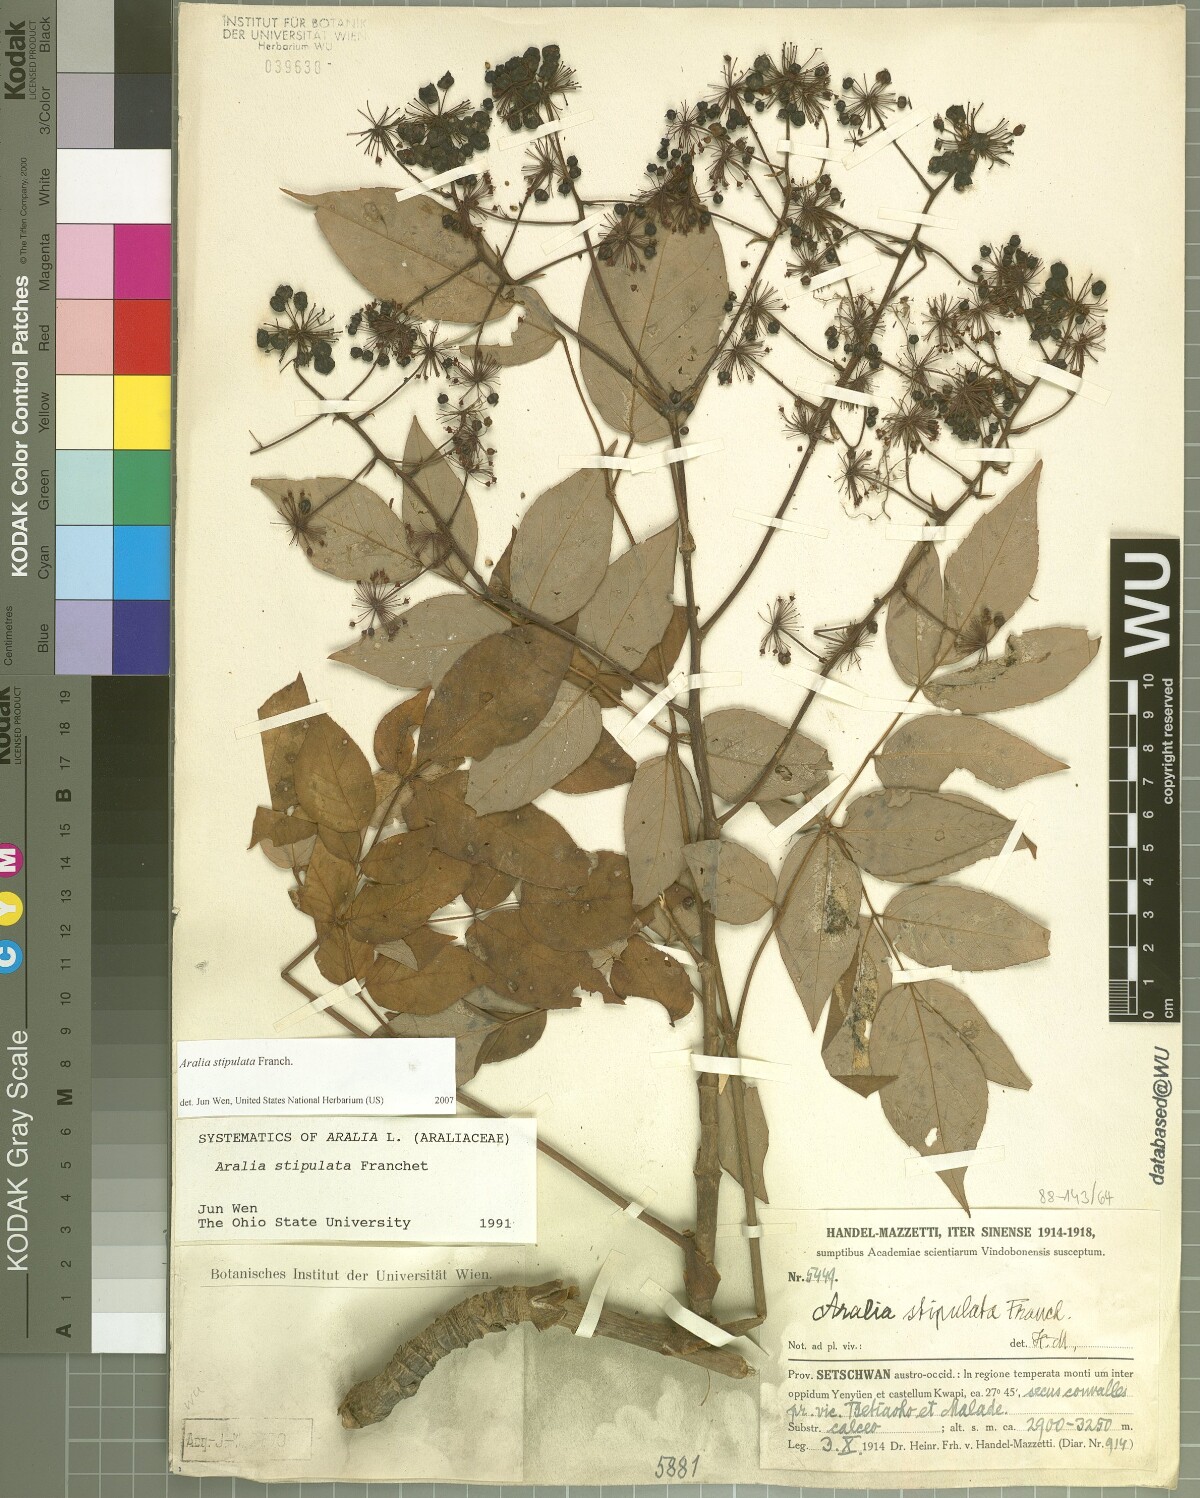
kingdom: Plantae
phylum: Tracheophyta
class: Magnoliopsida
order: Apiales
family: Araliaceae
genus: Aralia
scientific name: Aralia stipulata
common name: Chinese angelica-tree
